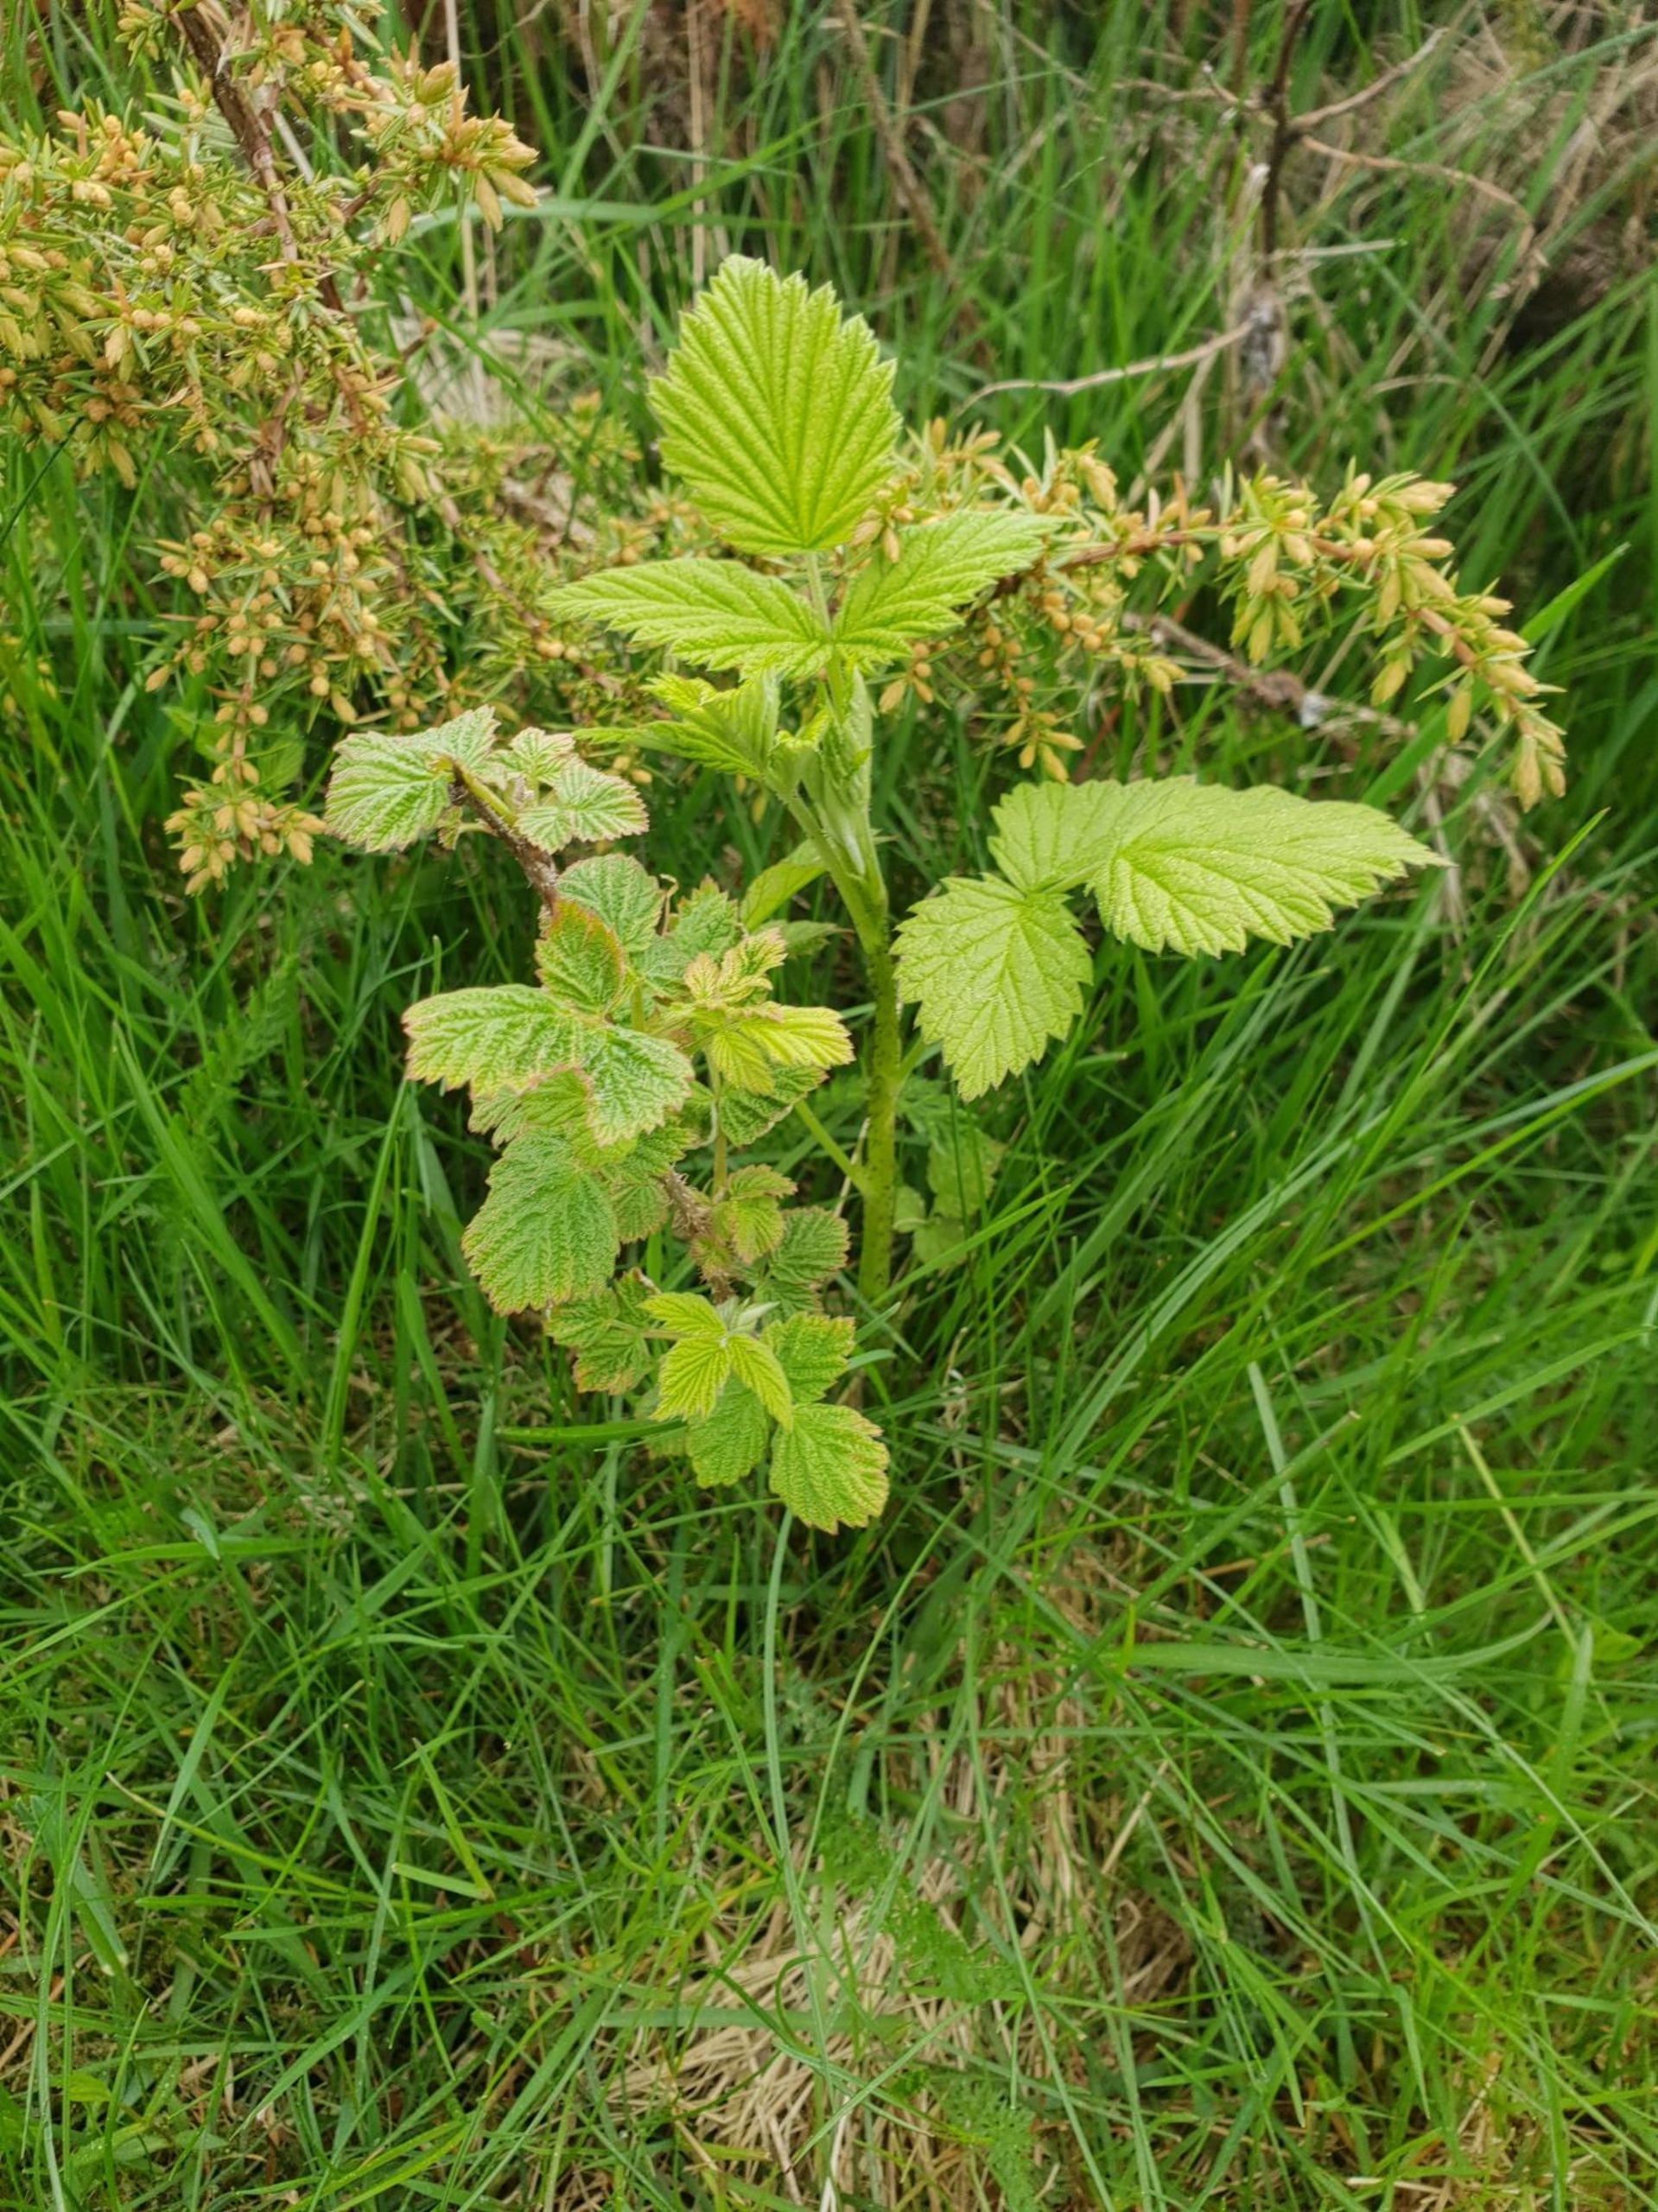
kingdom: Plantae
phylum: Tracheophyta
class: Magnoliopsida
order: Rosales
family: Rosaceae
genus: Rubus
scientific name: Rubus idaeus
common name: Hindbær
